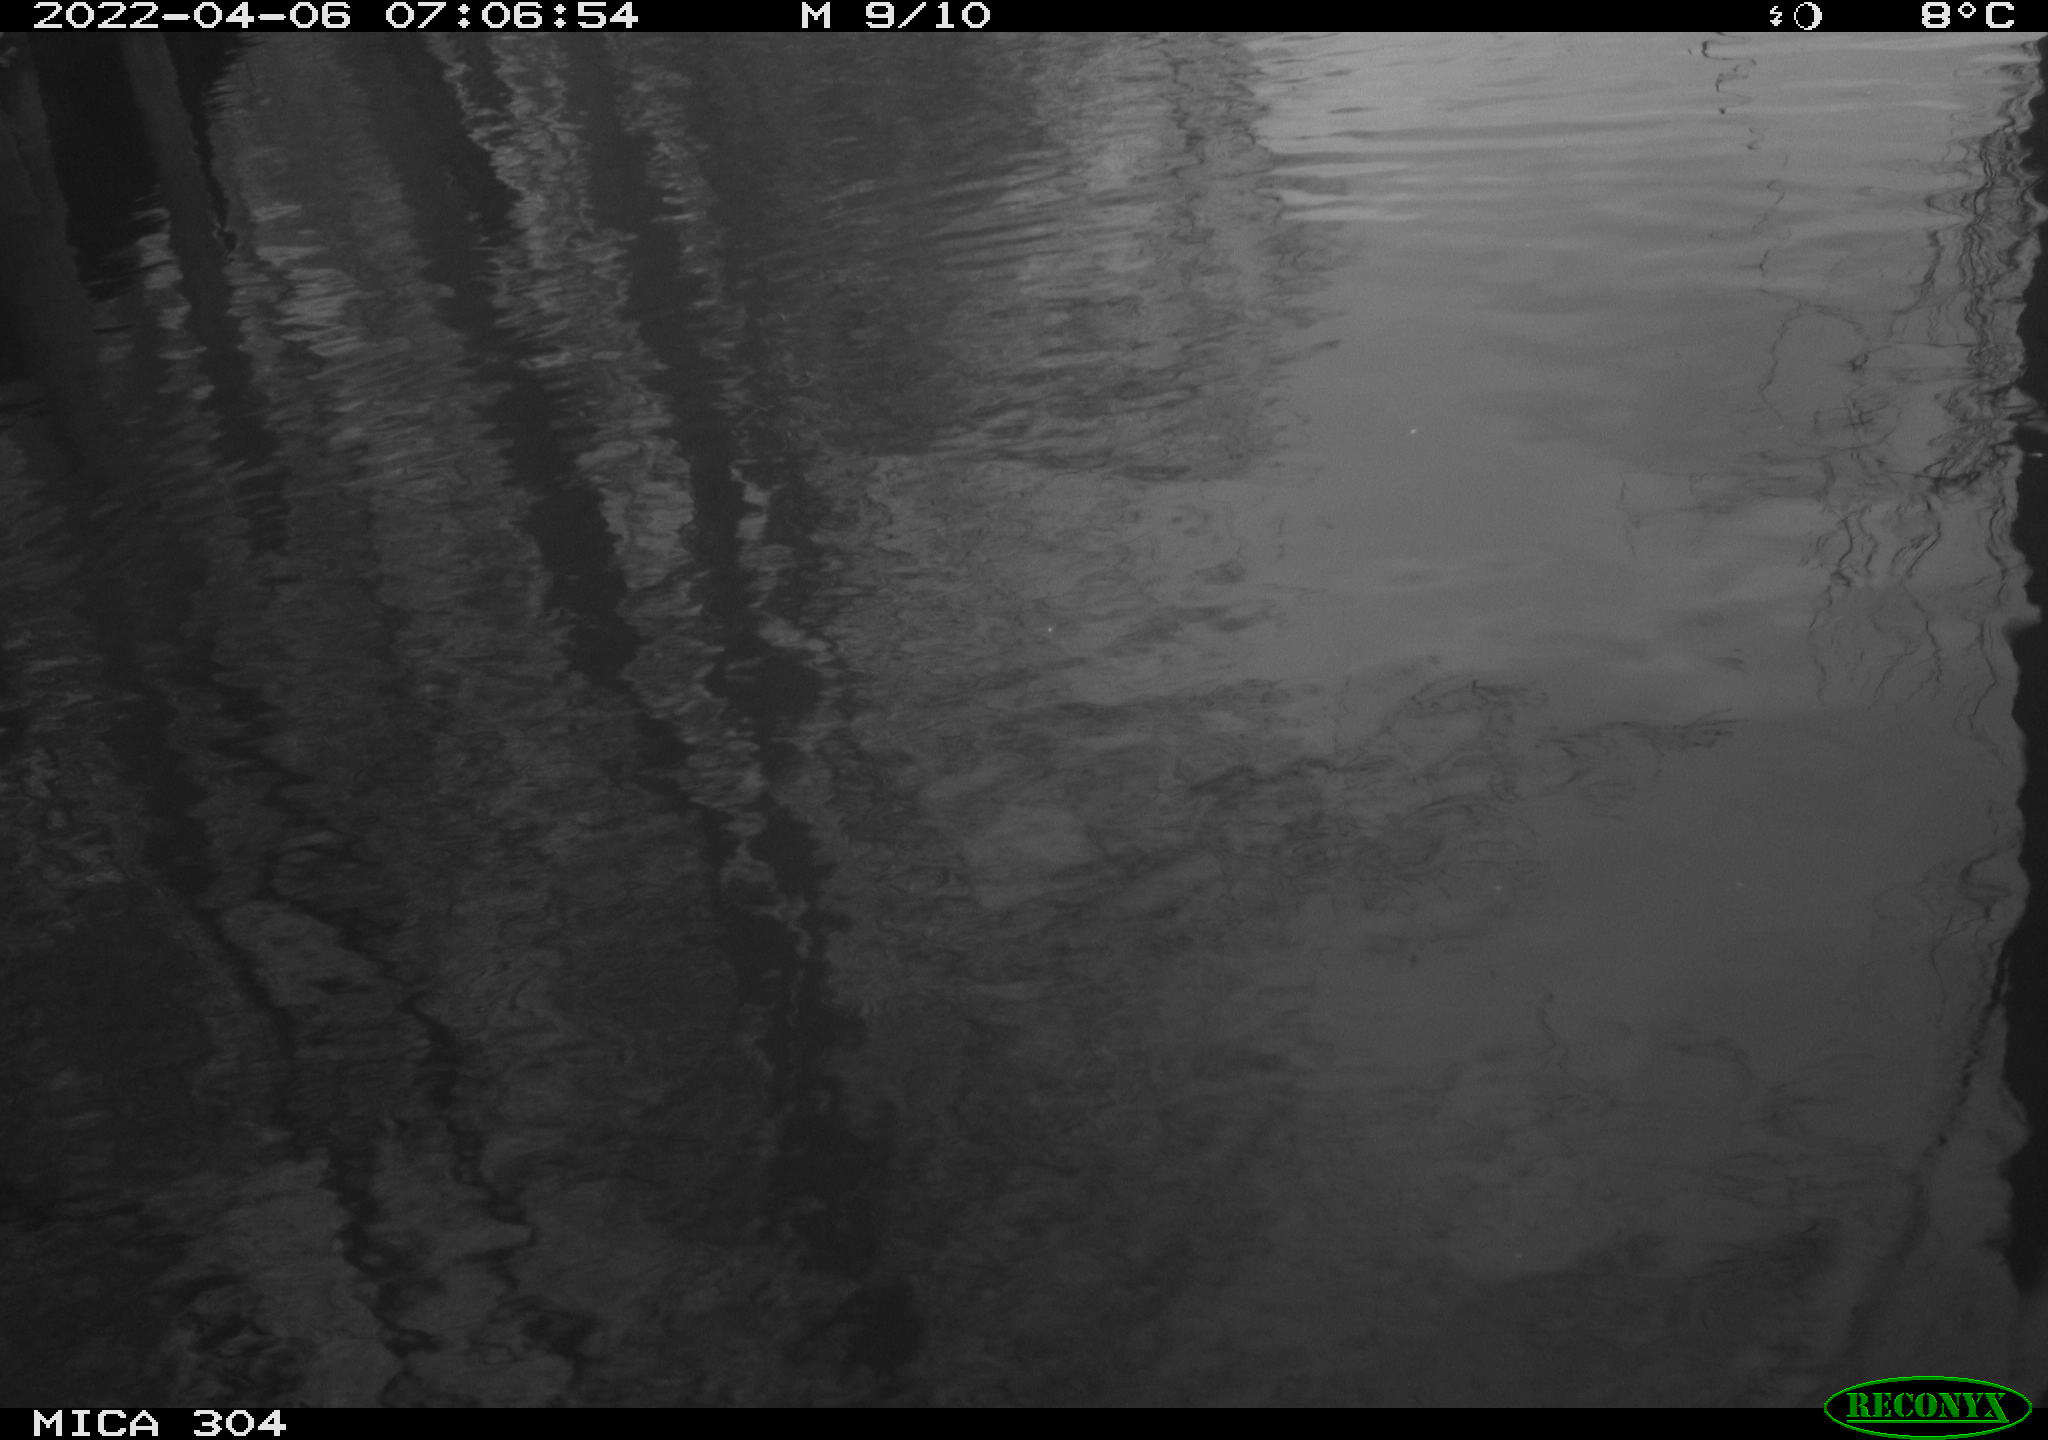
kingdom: Animalia
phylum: Chordata
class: Aves
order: Gruiformes
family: Rallidae
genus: Gallinula
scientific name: Gallinula chloropus
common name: Common moorhen
